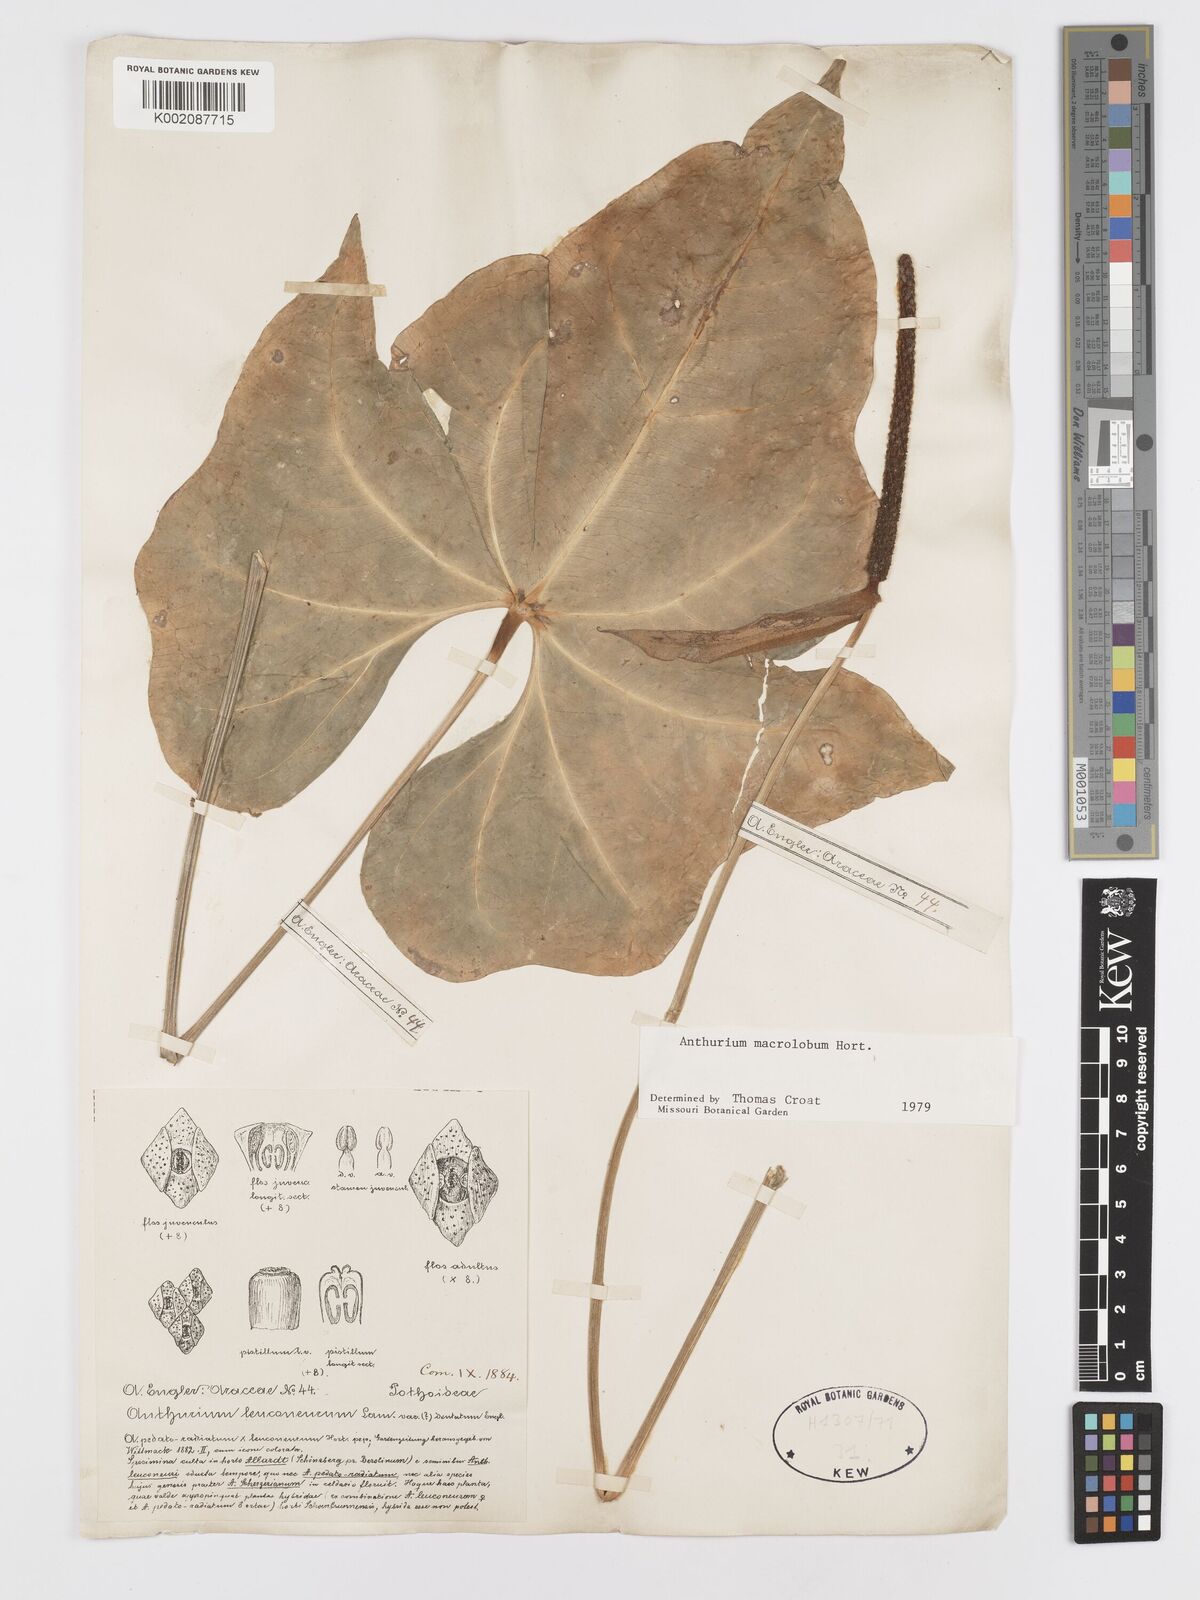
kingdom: Plantae
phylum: Tracheophyta
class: Liliopsida
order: Alismatales
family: Araceae
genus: Anthurium
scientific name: Anthurium leuconeurum
